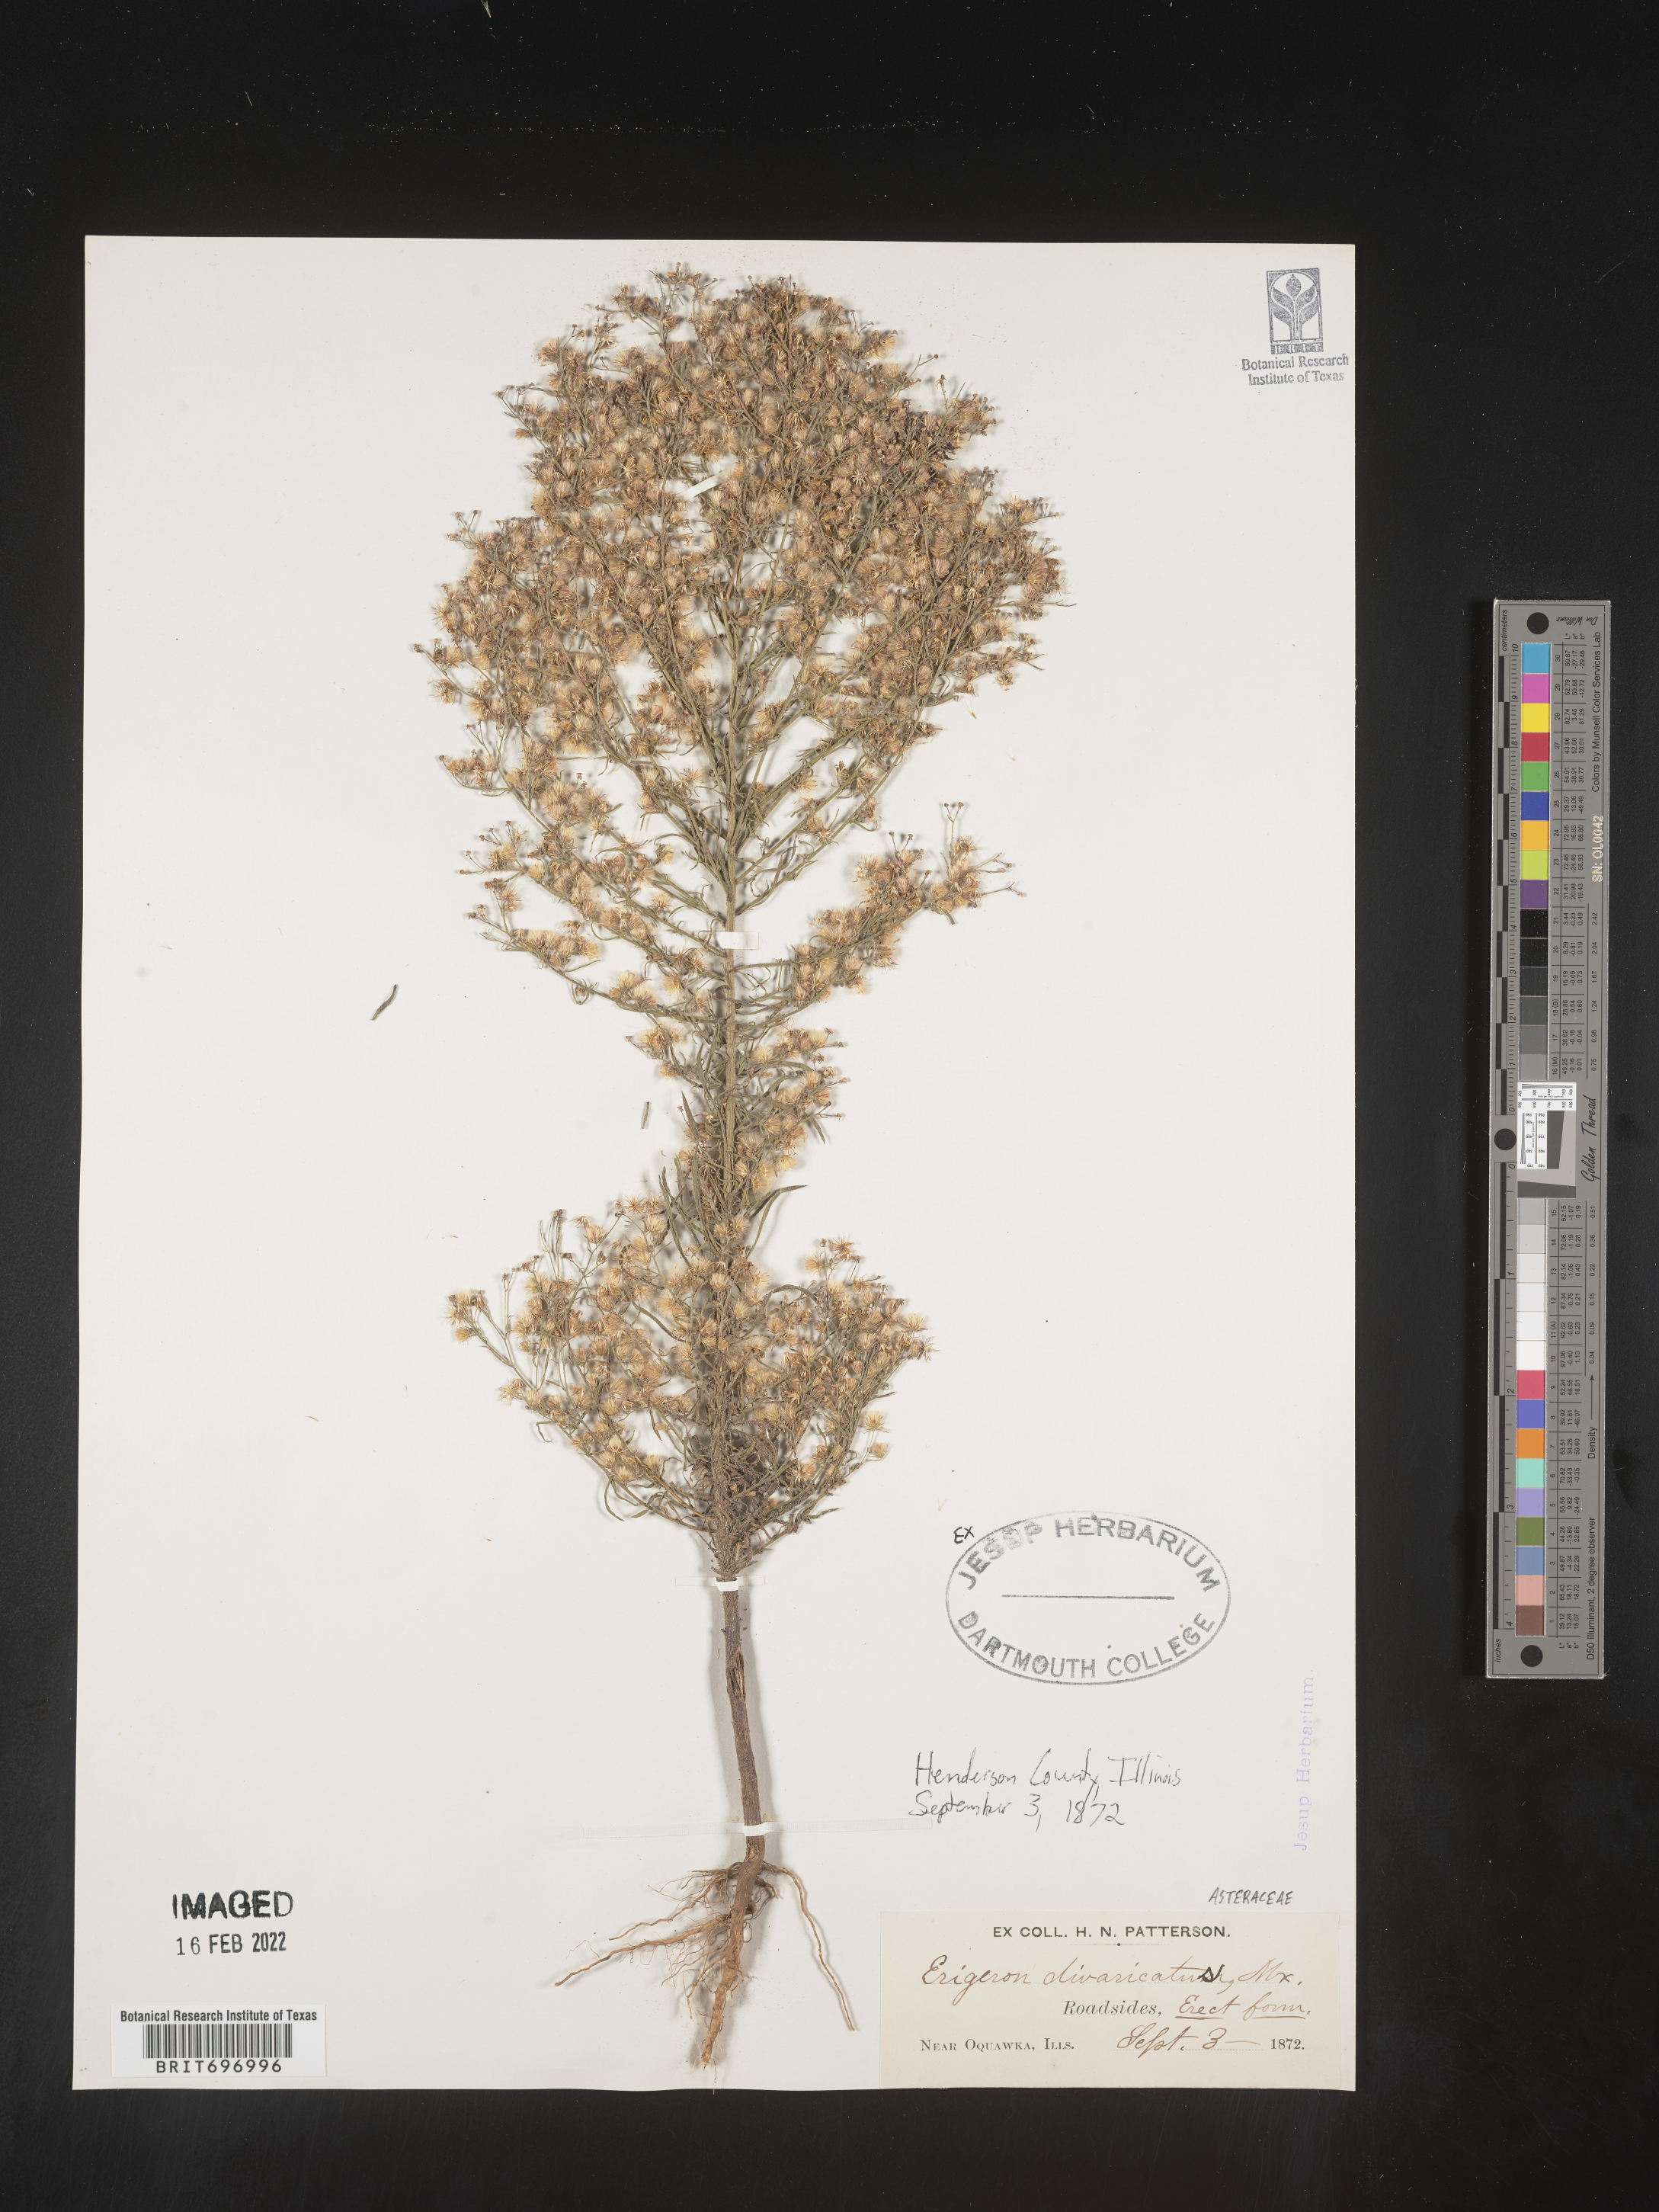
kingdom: Plantae
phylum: Tracheophyta
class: Magnoliopsida
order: Asterales
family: Asteraceae
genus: Erigeron
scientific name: Erigeron divaricatus
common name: Dwarf conyza
